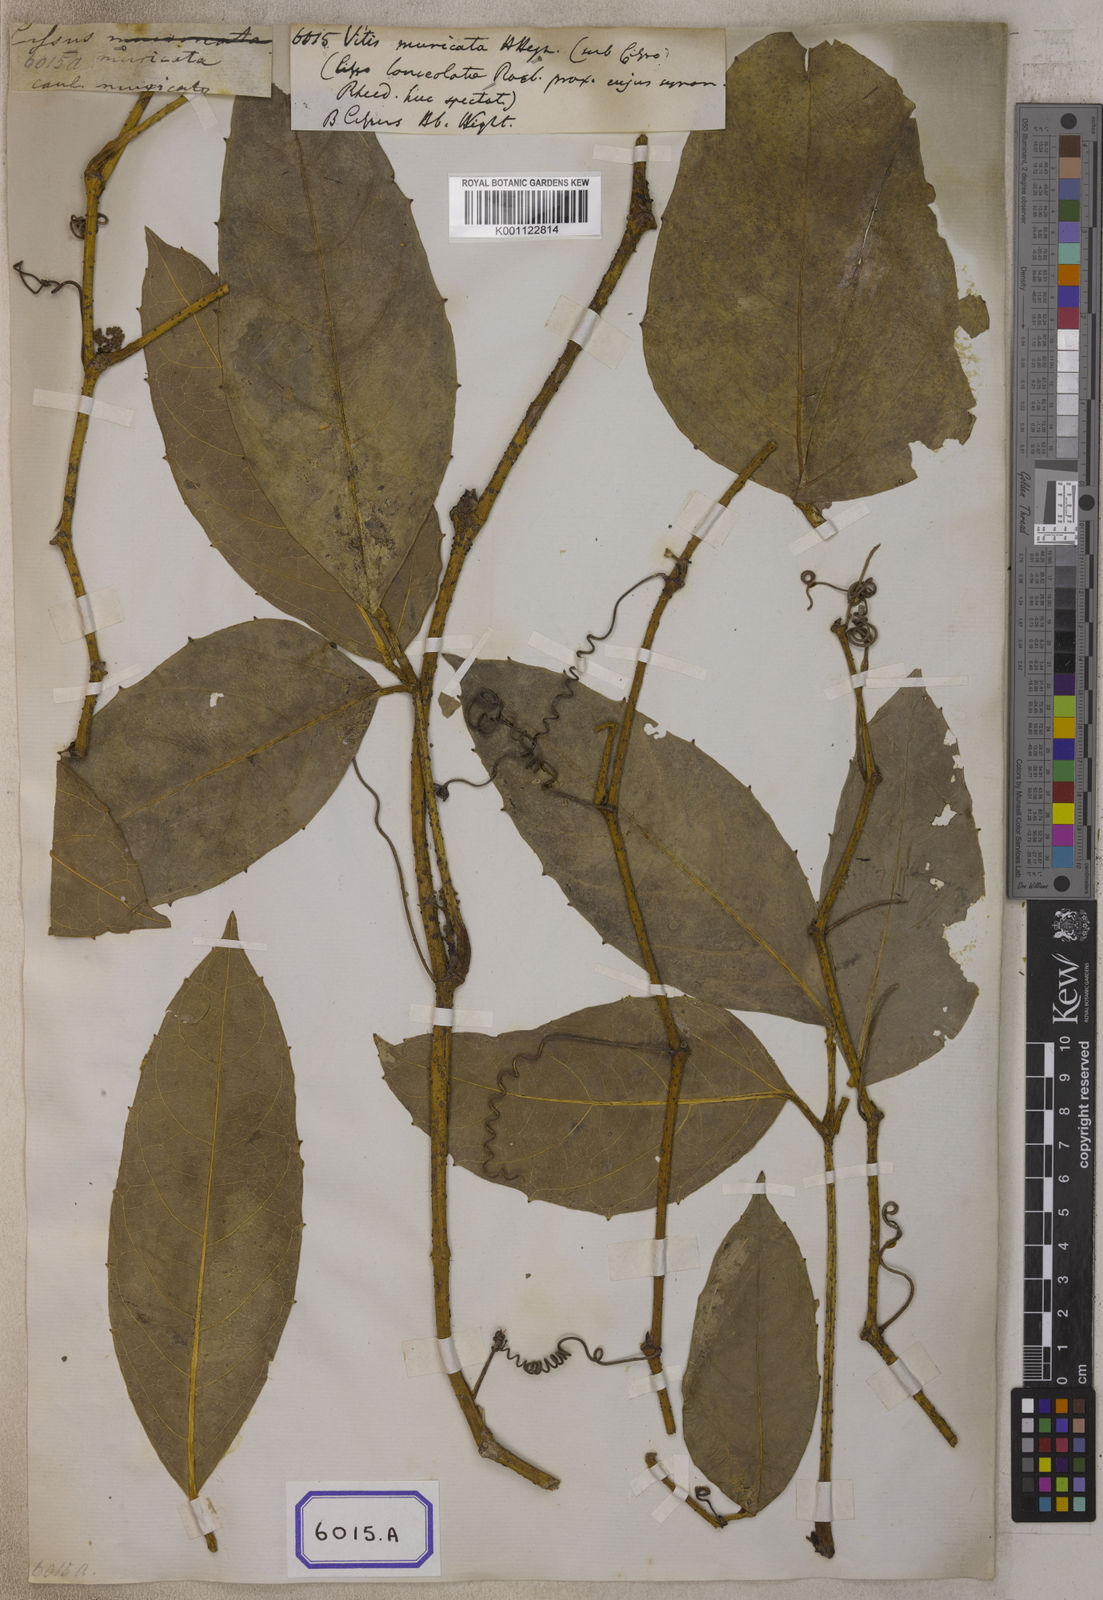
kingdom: Plantae
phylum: Tracheophyta
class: Magnoliopsida
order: Vitales
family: Vitaceae
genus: Cayratia
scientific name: Cayratia pedata
